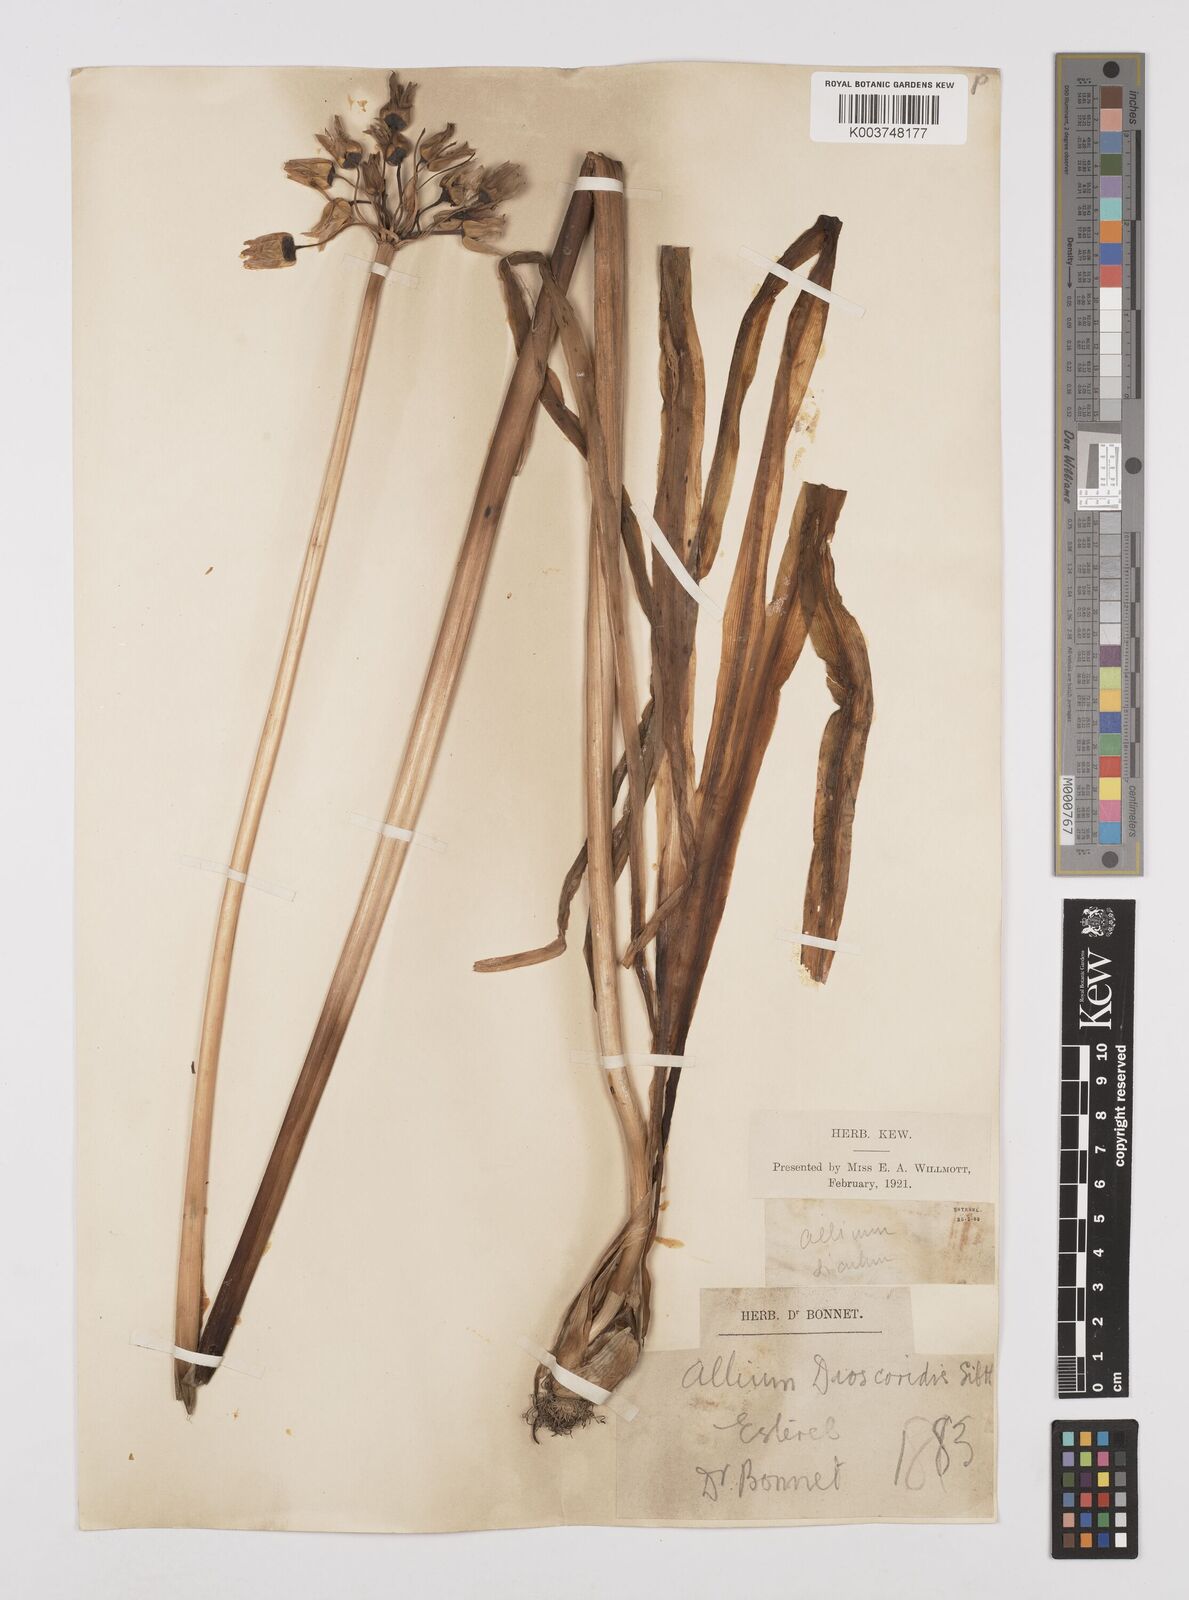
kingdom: Plantae
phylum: Tracheophyta
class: Liliopsida
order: Asparagales
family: Amaryllidaceae
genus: Allium
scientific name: Allium siculum
